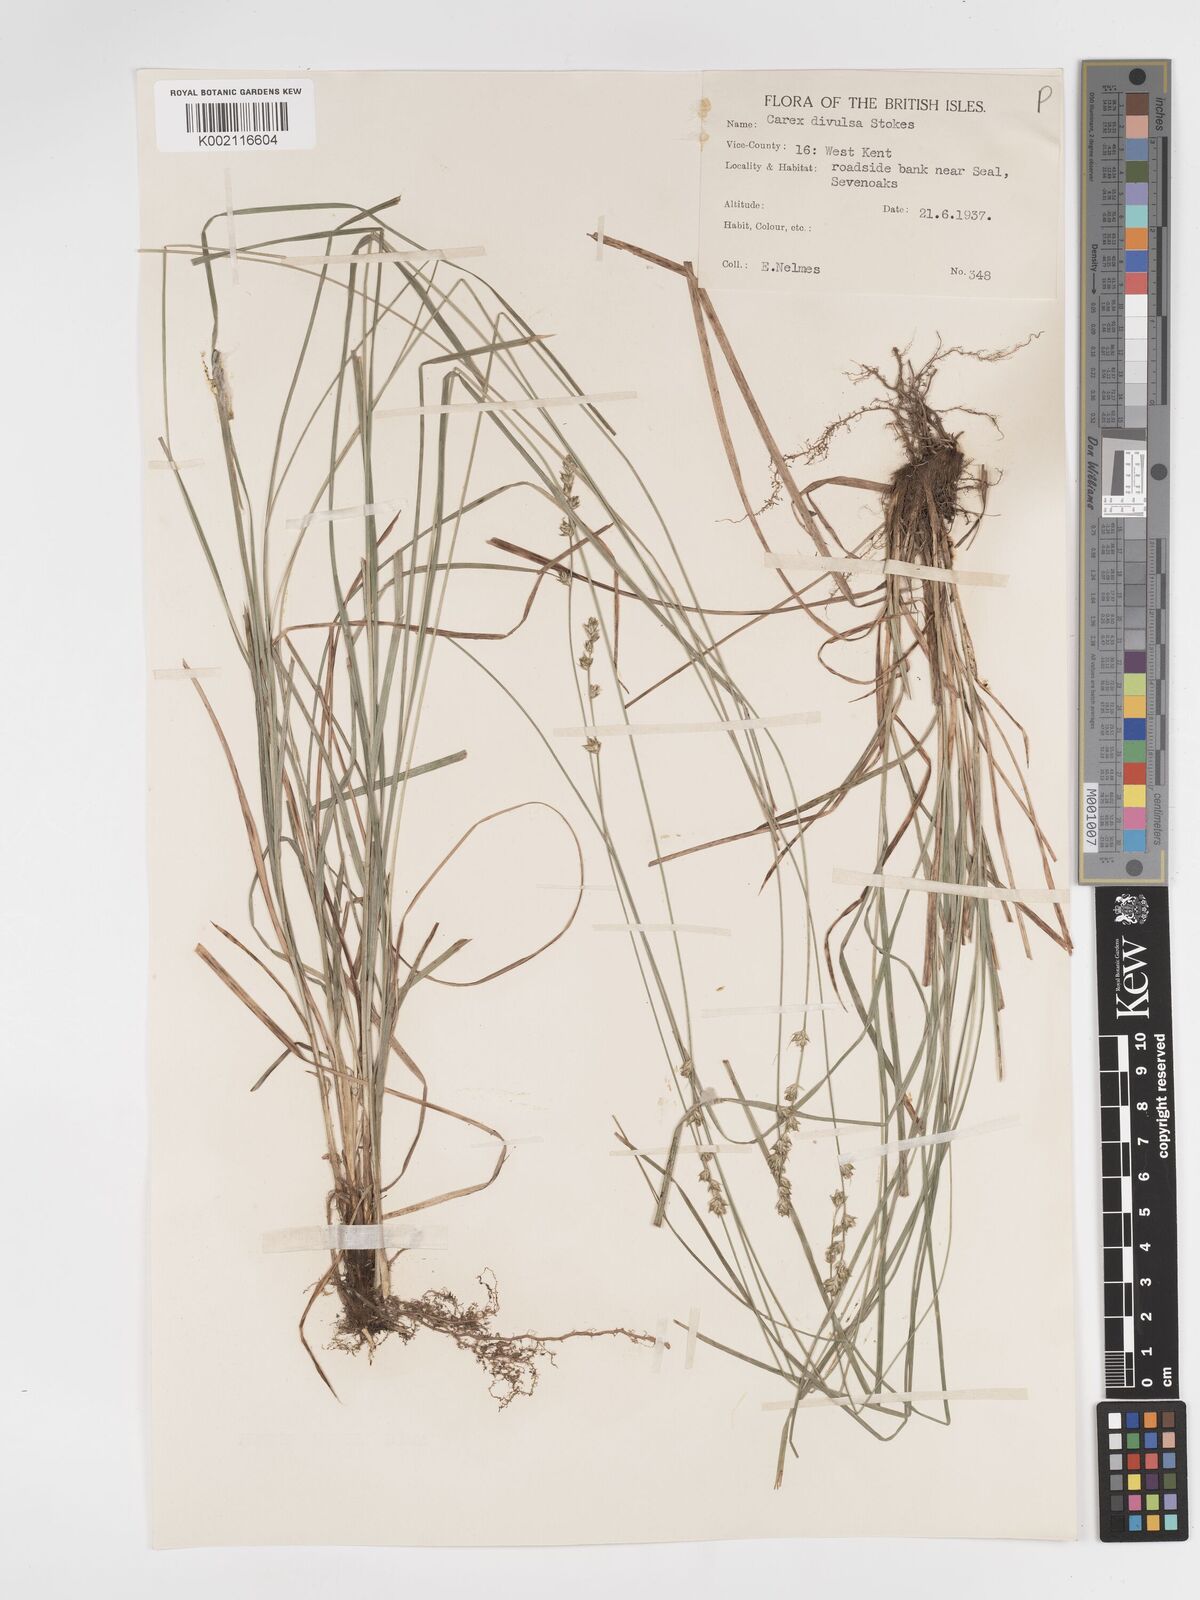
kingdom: Plantae
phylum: Tracheophyta
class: Liliopsida
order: Poales
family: Cyperaceae
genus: Carex
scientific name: Carex divulsa
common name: Grassland sedge
